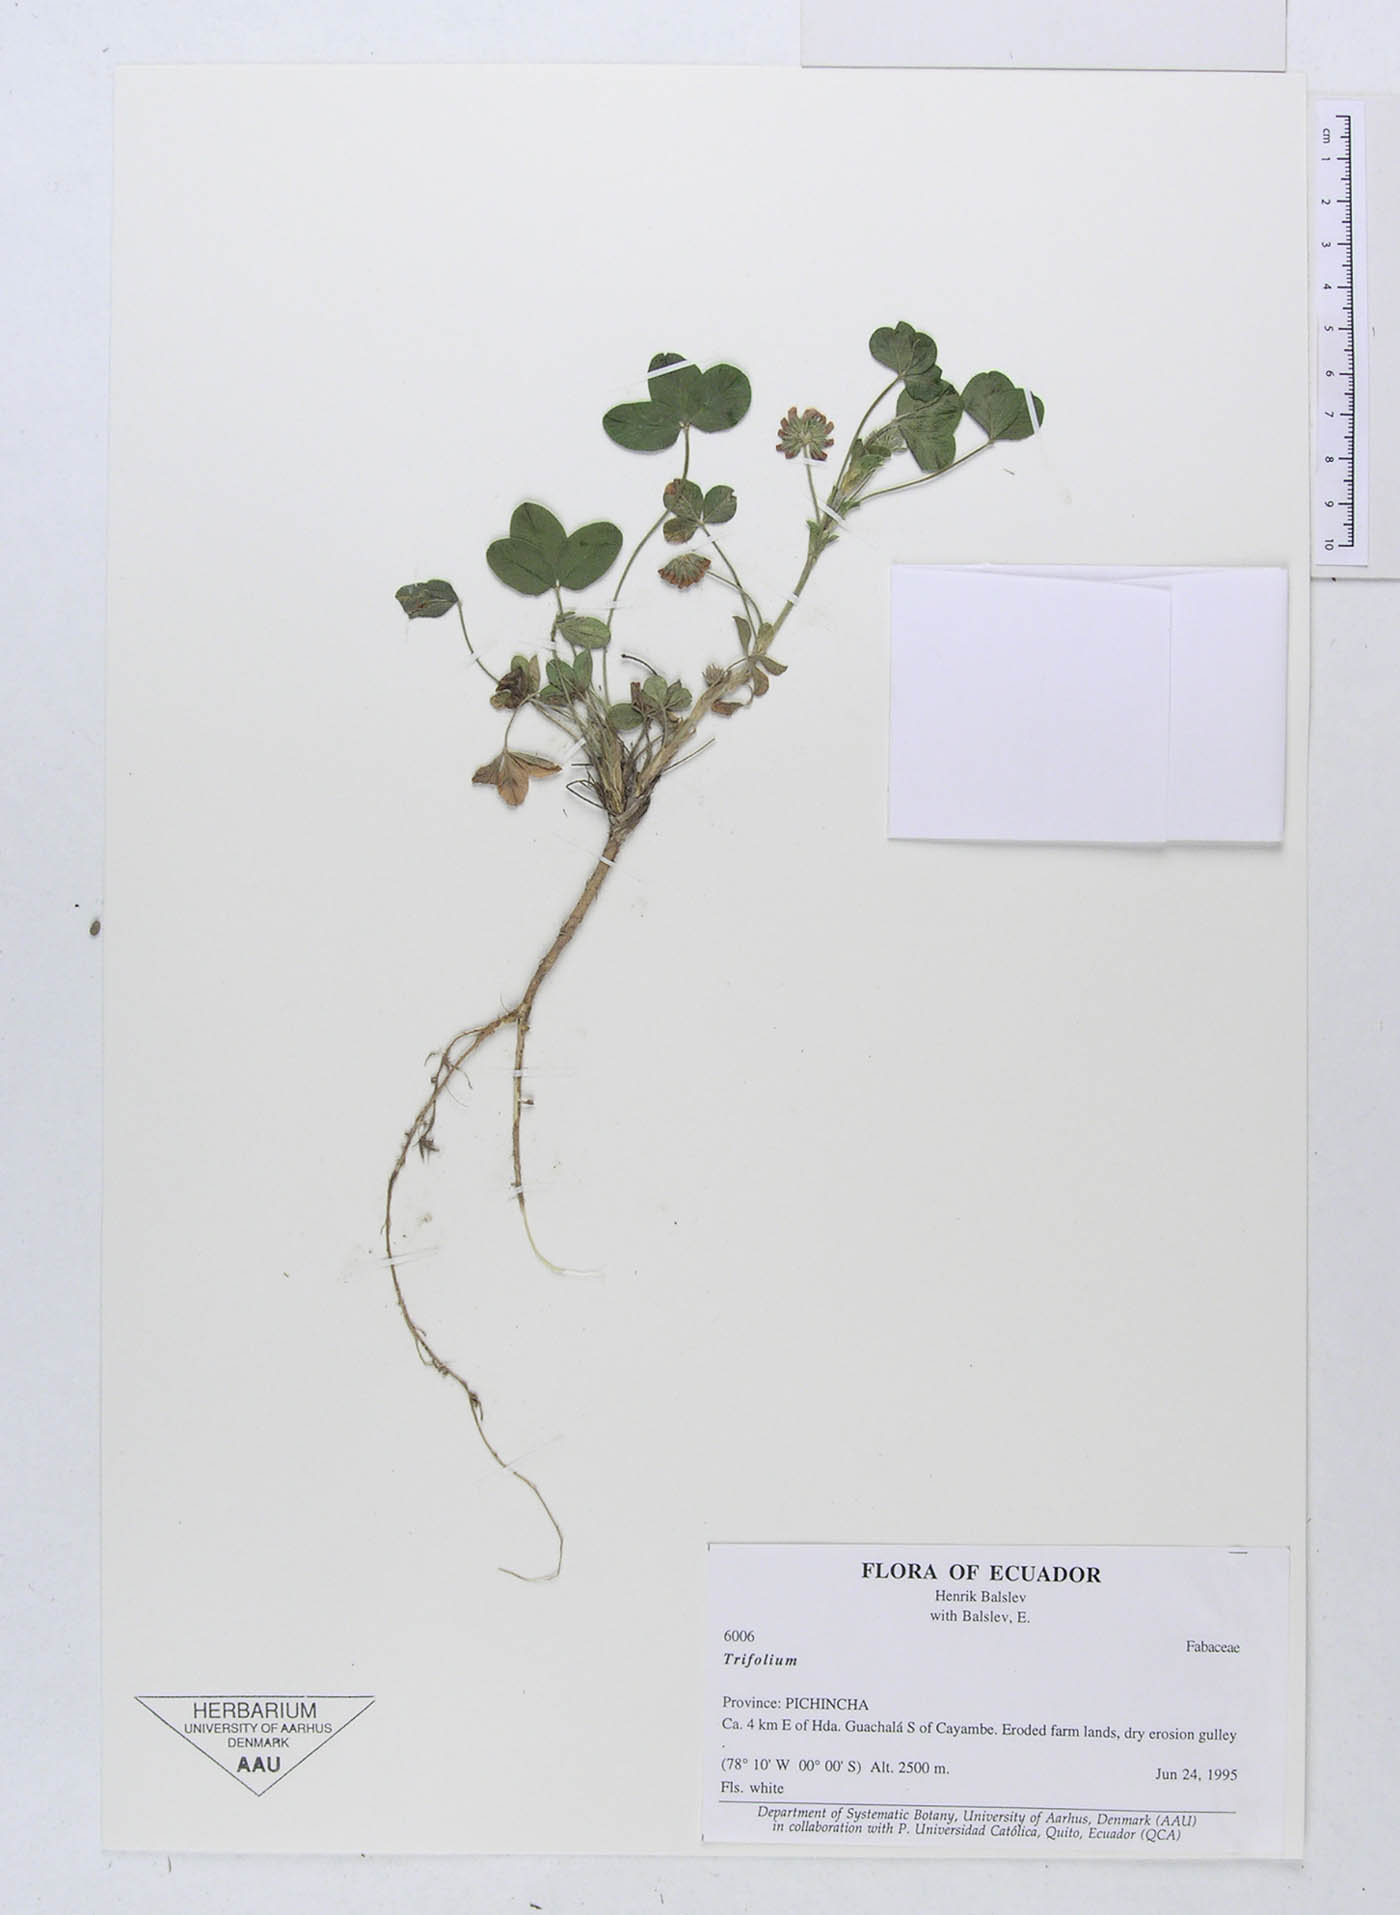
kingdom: Plantae
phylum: Tracheophyta
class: Magnoliopsida
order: Fabales
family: Fabaceae
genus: Trifolium
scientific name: Trifolium
